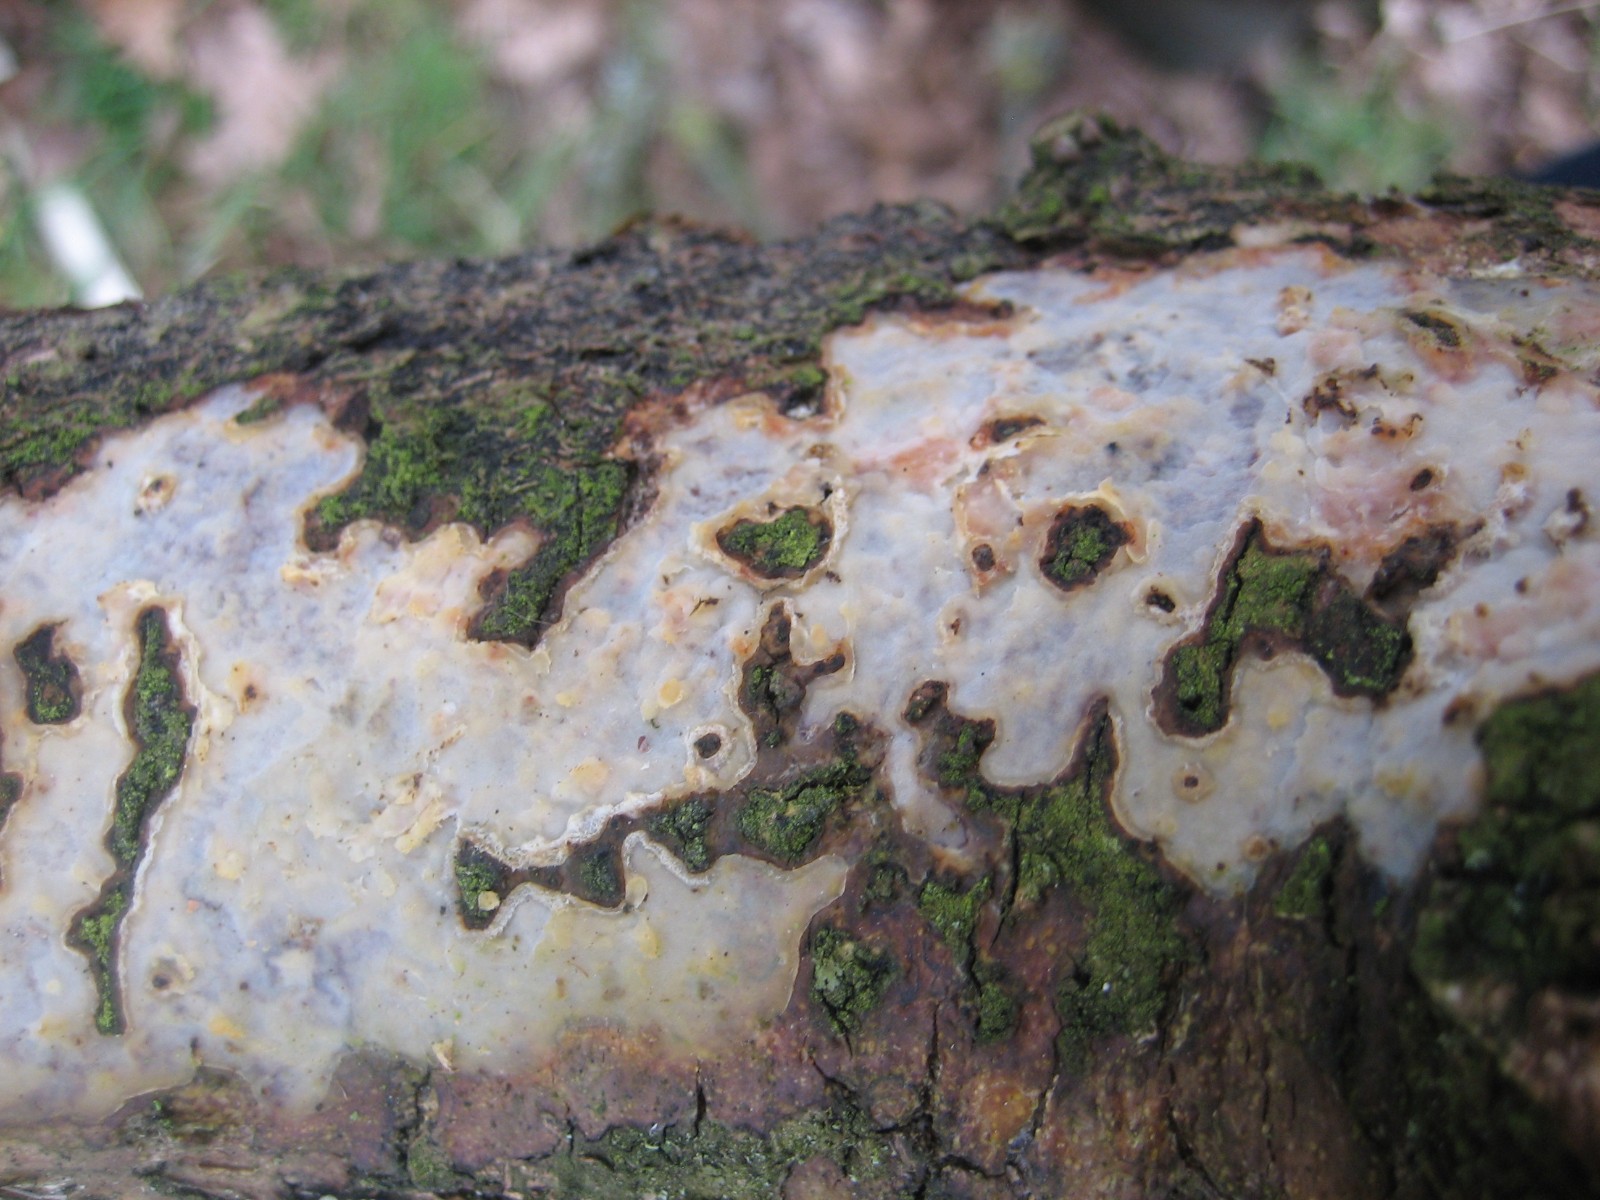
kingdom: Fungi
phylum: Basidiomycota
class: Agaricomycetes
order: Corticiales
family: Vuilleminiaceae
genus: Vuilleminia
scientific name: Vuilleminia comedens
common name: almindelig barksprænger
